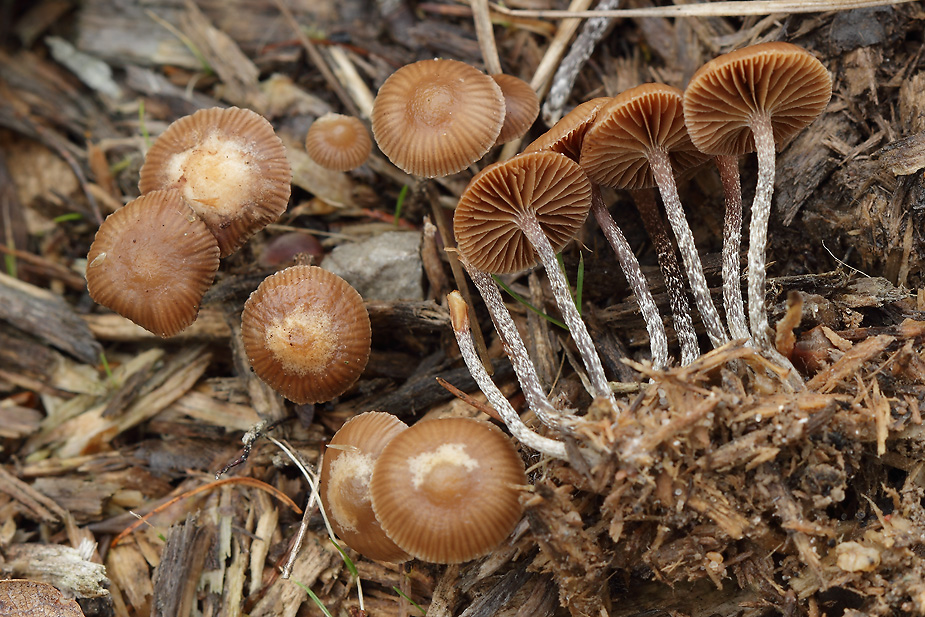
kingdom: Fungi
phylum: Basidiomycota
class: Agaricomycetes
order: Agaricales
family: Strophariaceae
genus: Deconica
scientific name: Deconica crobula
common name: træflis-stråhat
